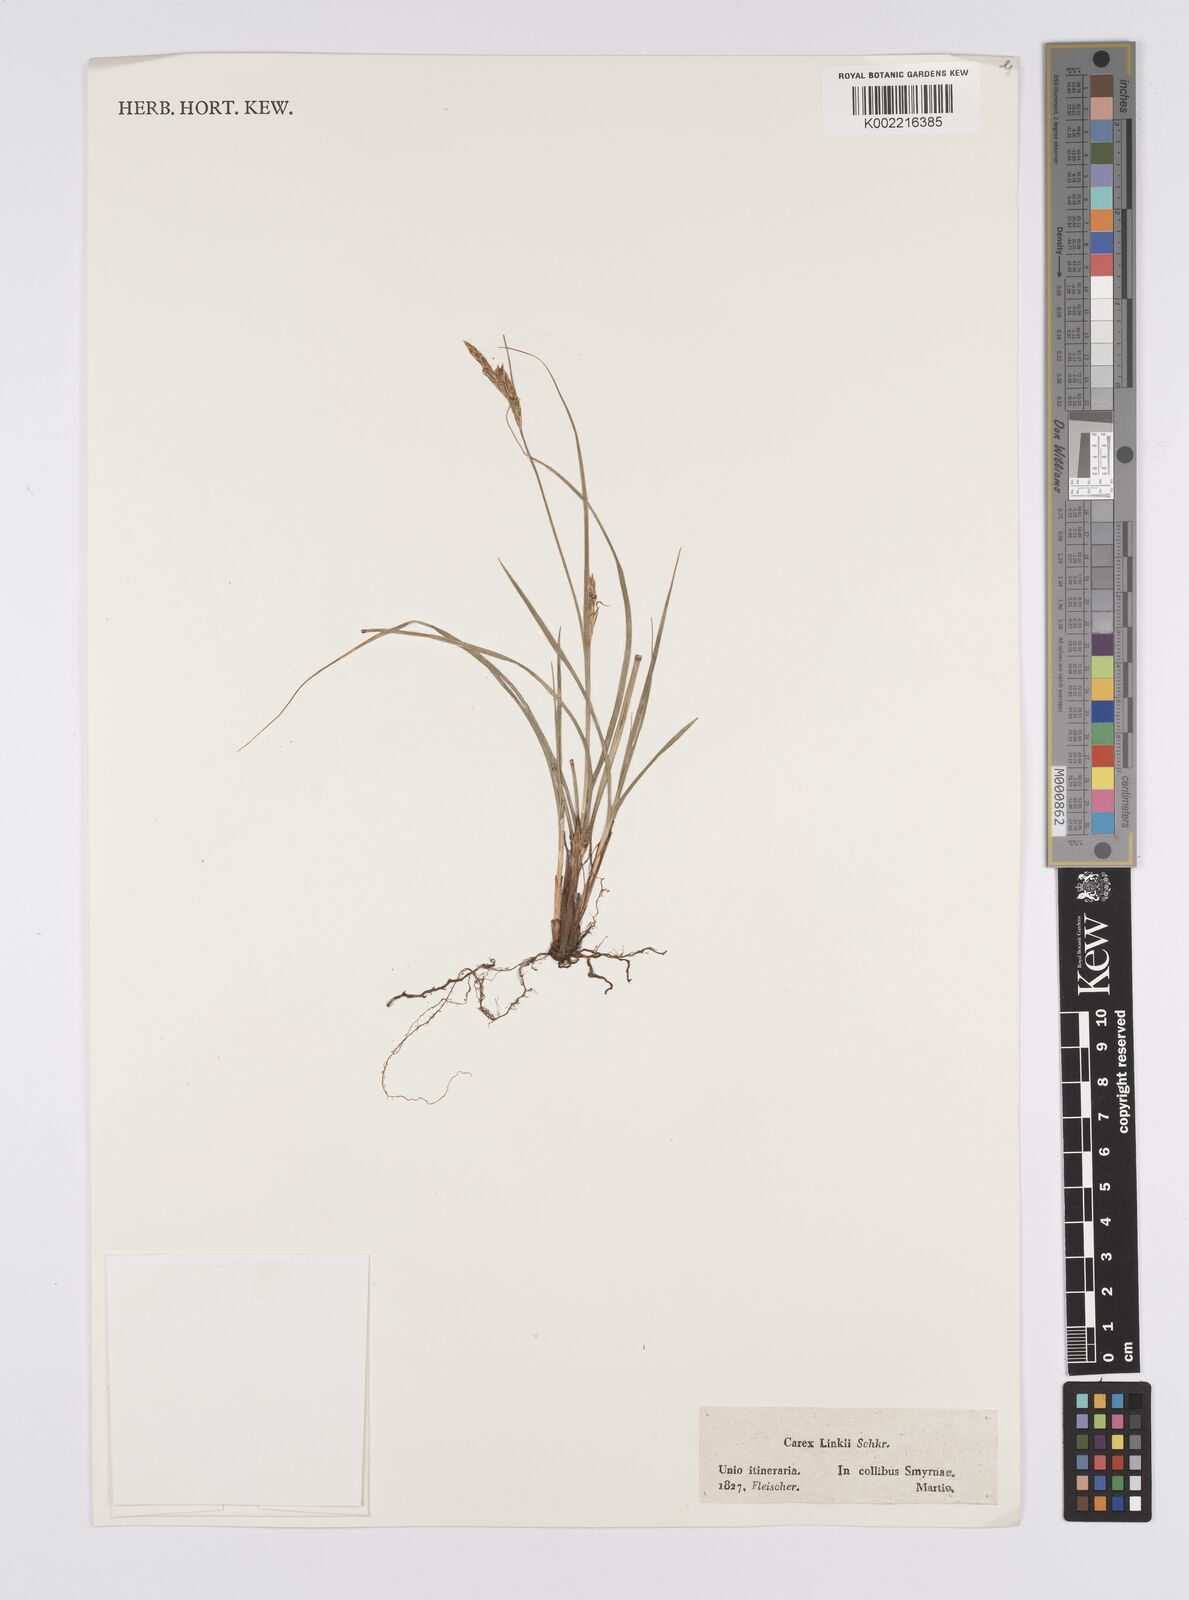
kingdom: Plantae
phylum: Tracheophyta
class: Liliopsida
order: Poales
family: Cyperaceae
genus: Carex
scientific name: Carex distachya
